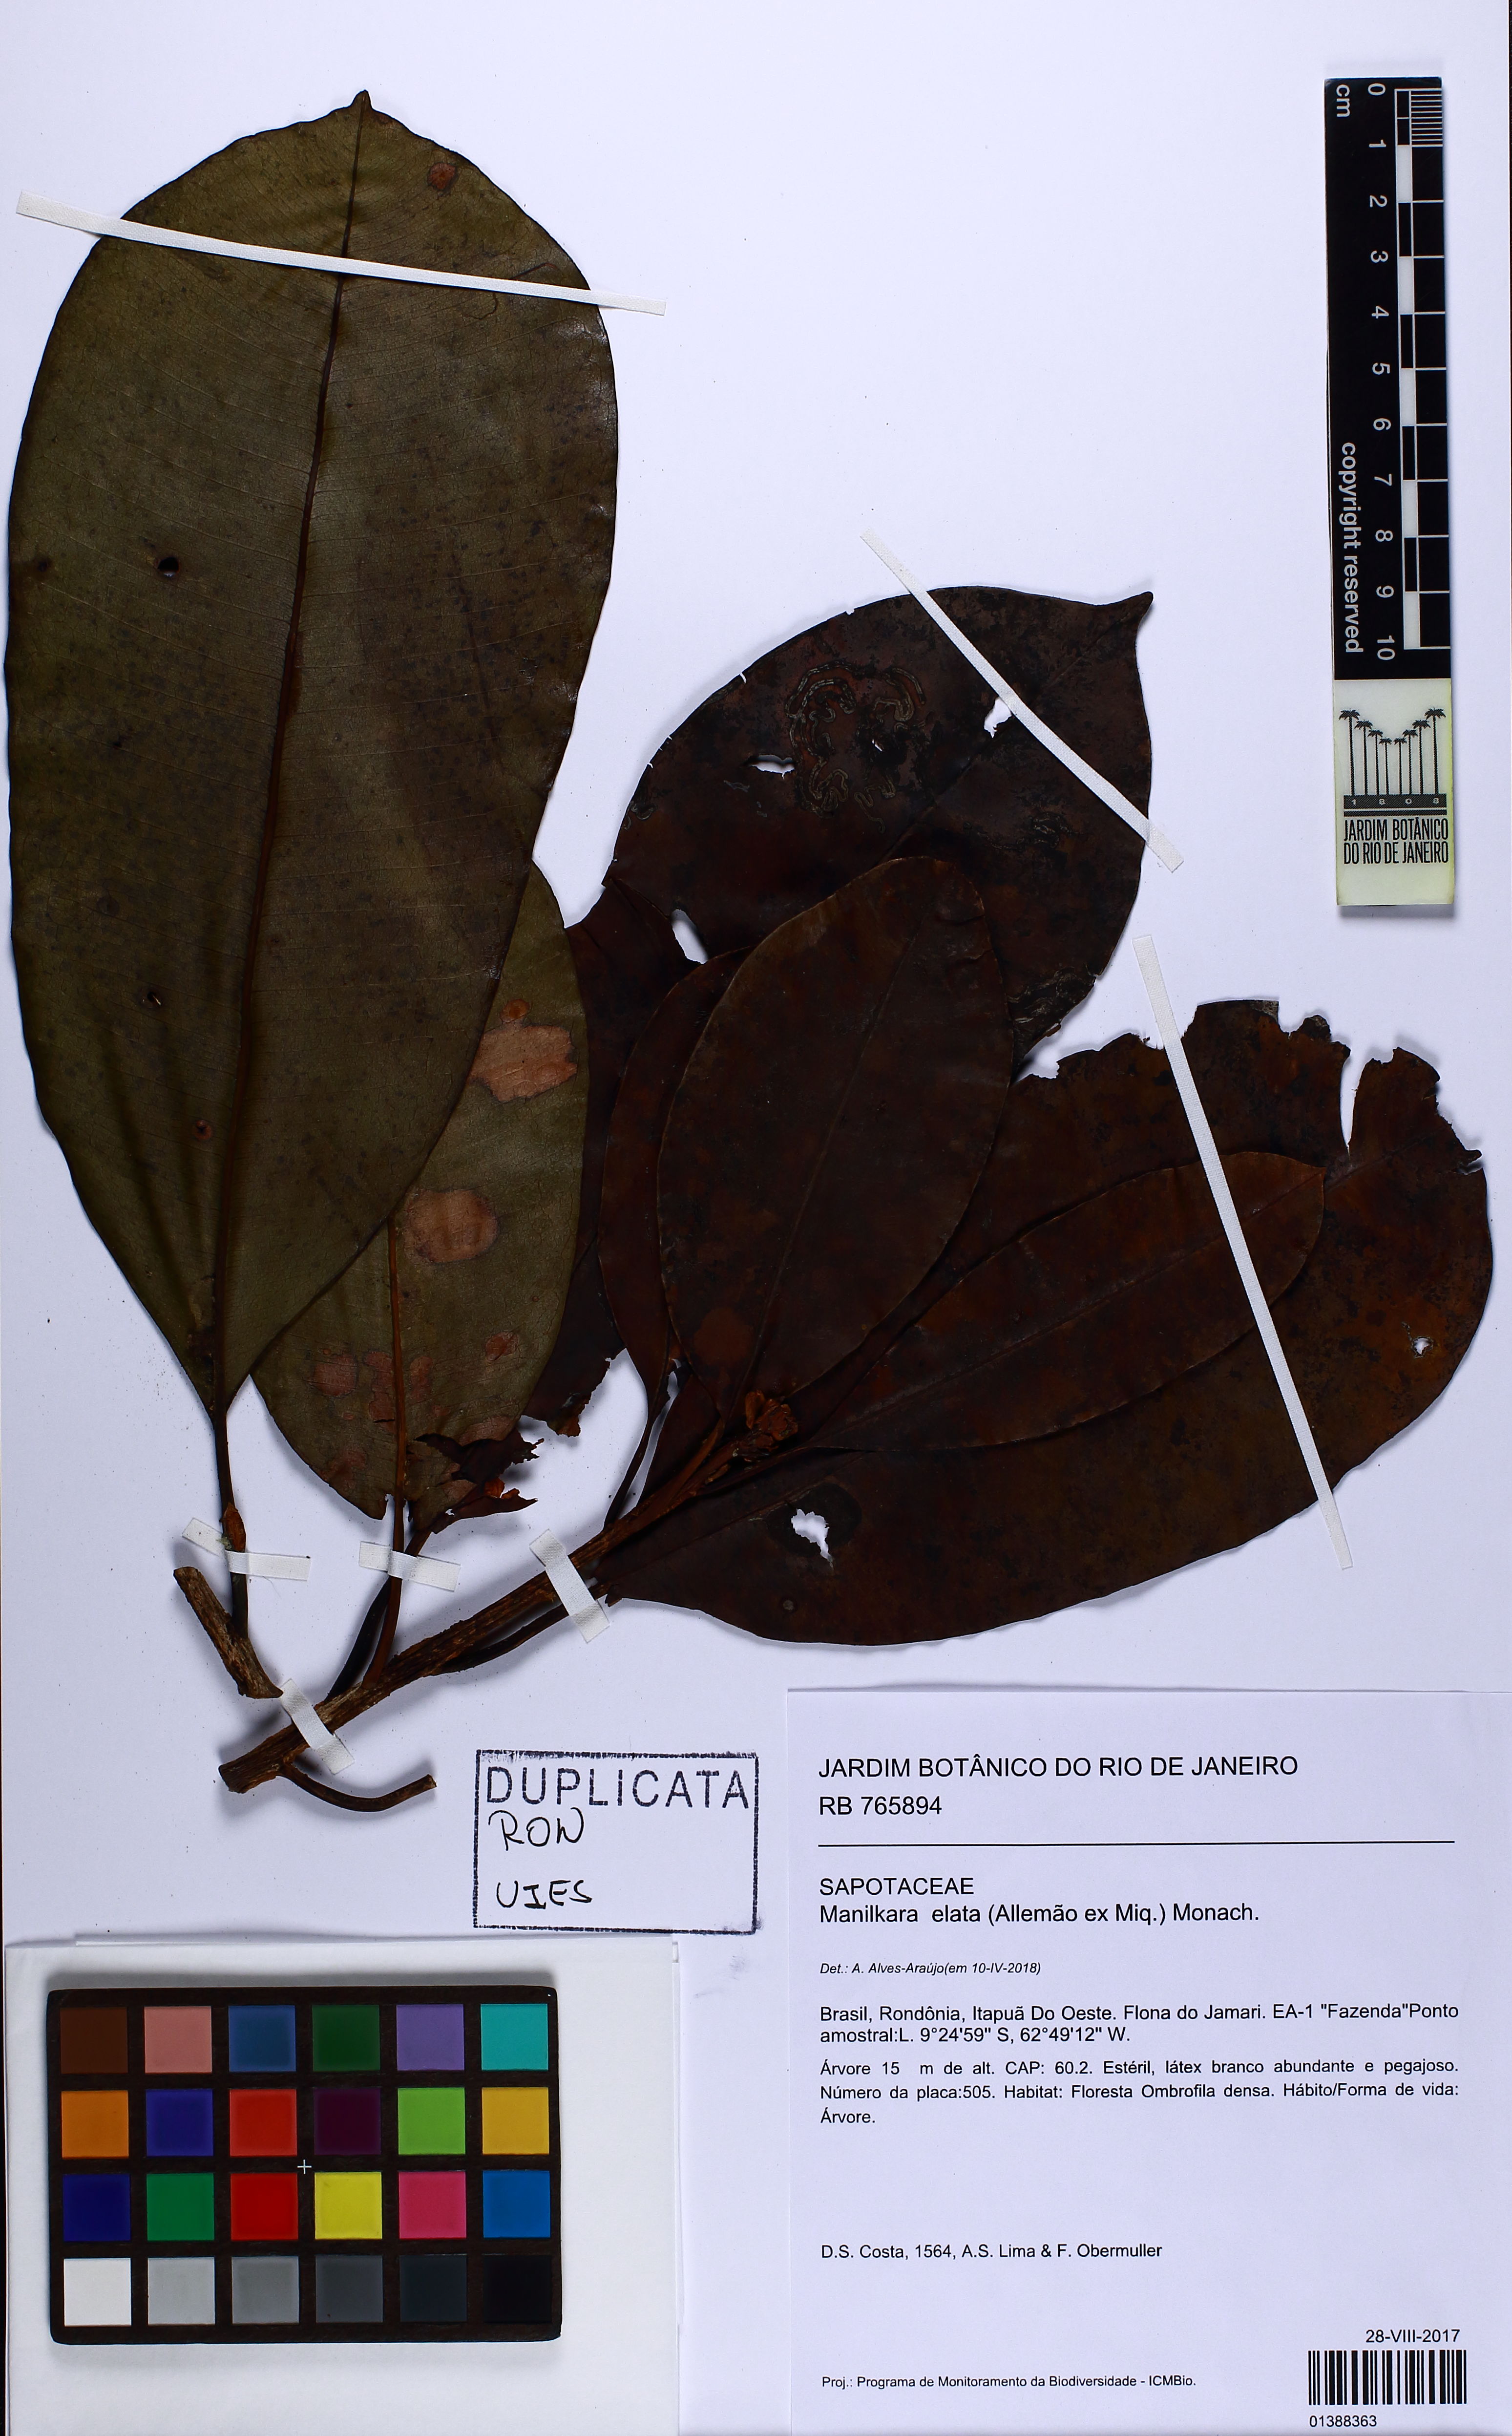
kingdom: Plantae
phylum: Tracheophyta
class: Magnoliopsida
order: Ericales
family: Sapotaceae
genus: Manilkara
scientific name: Manilkara elata
